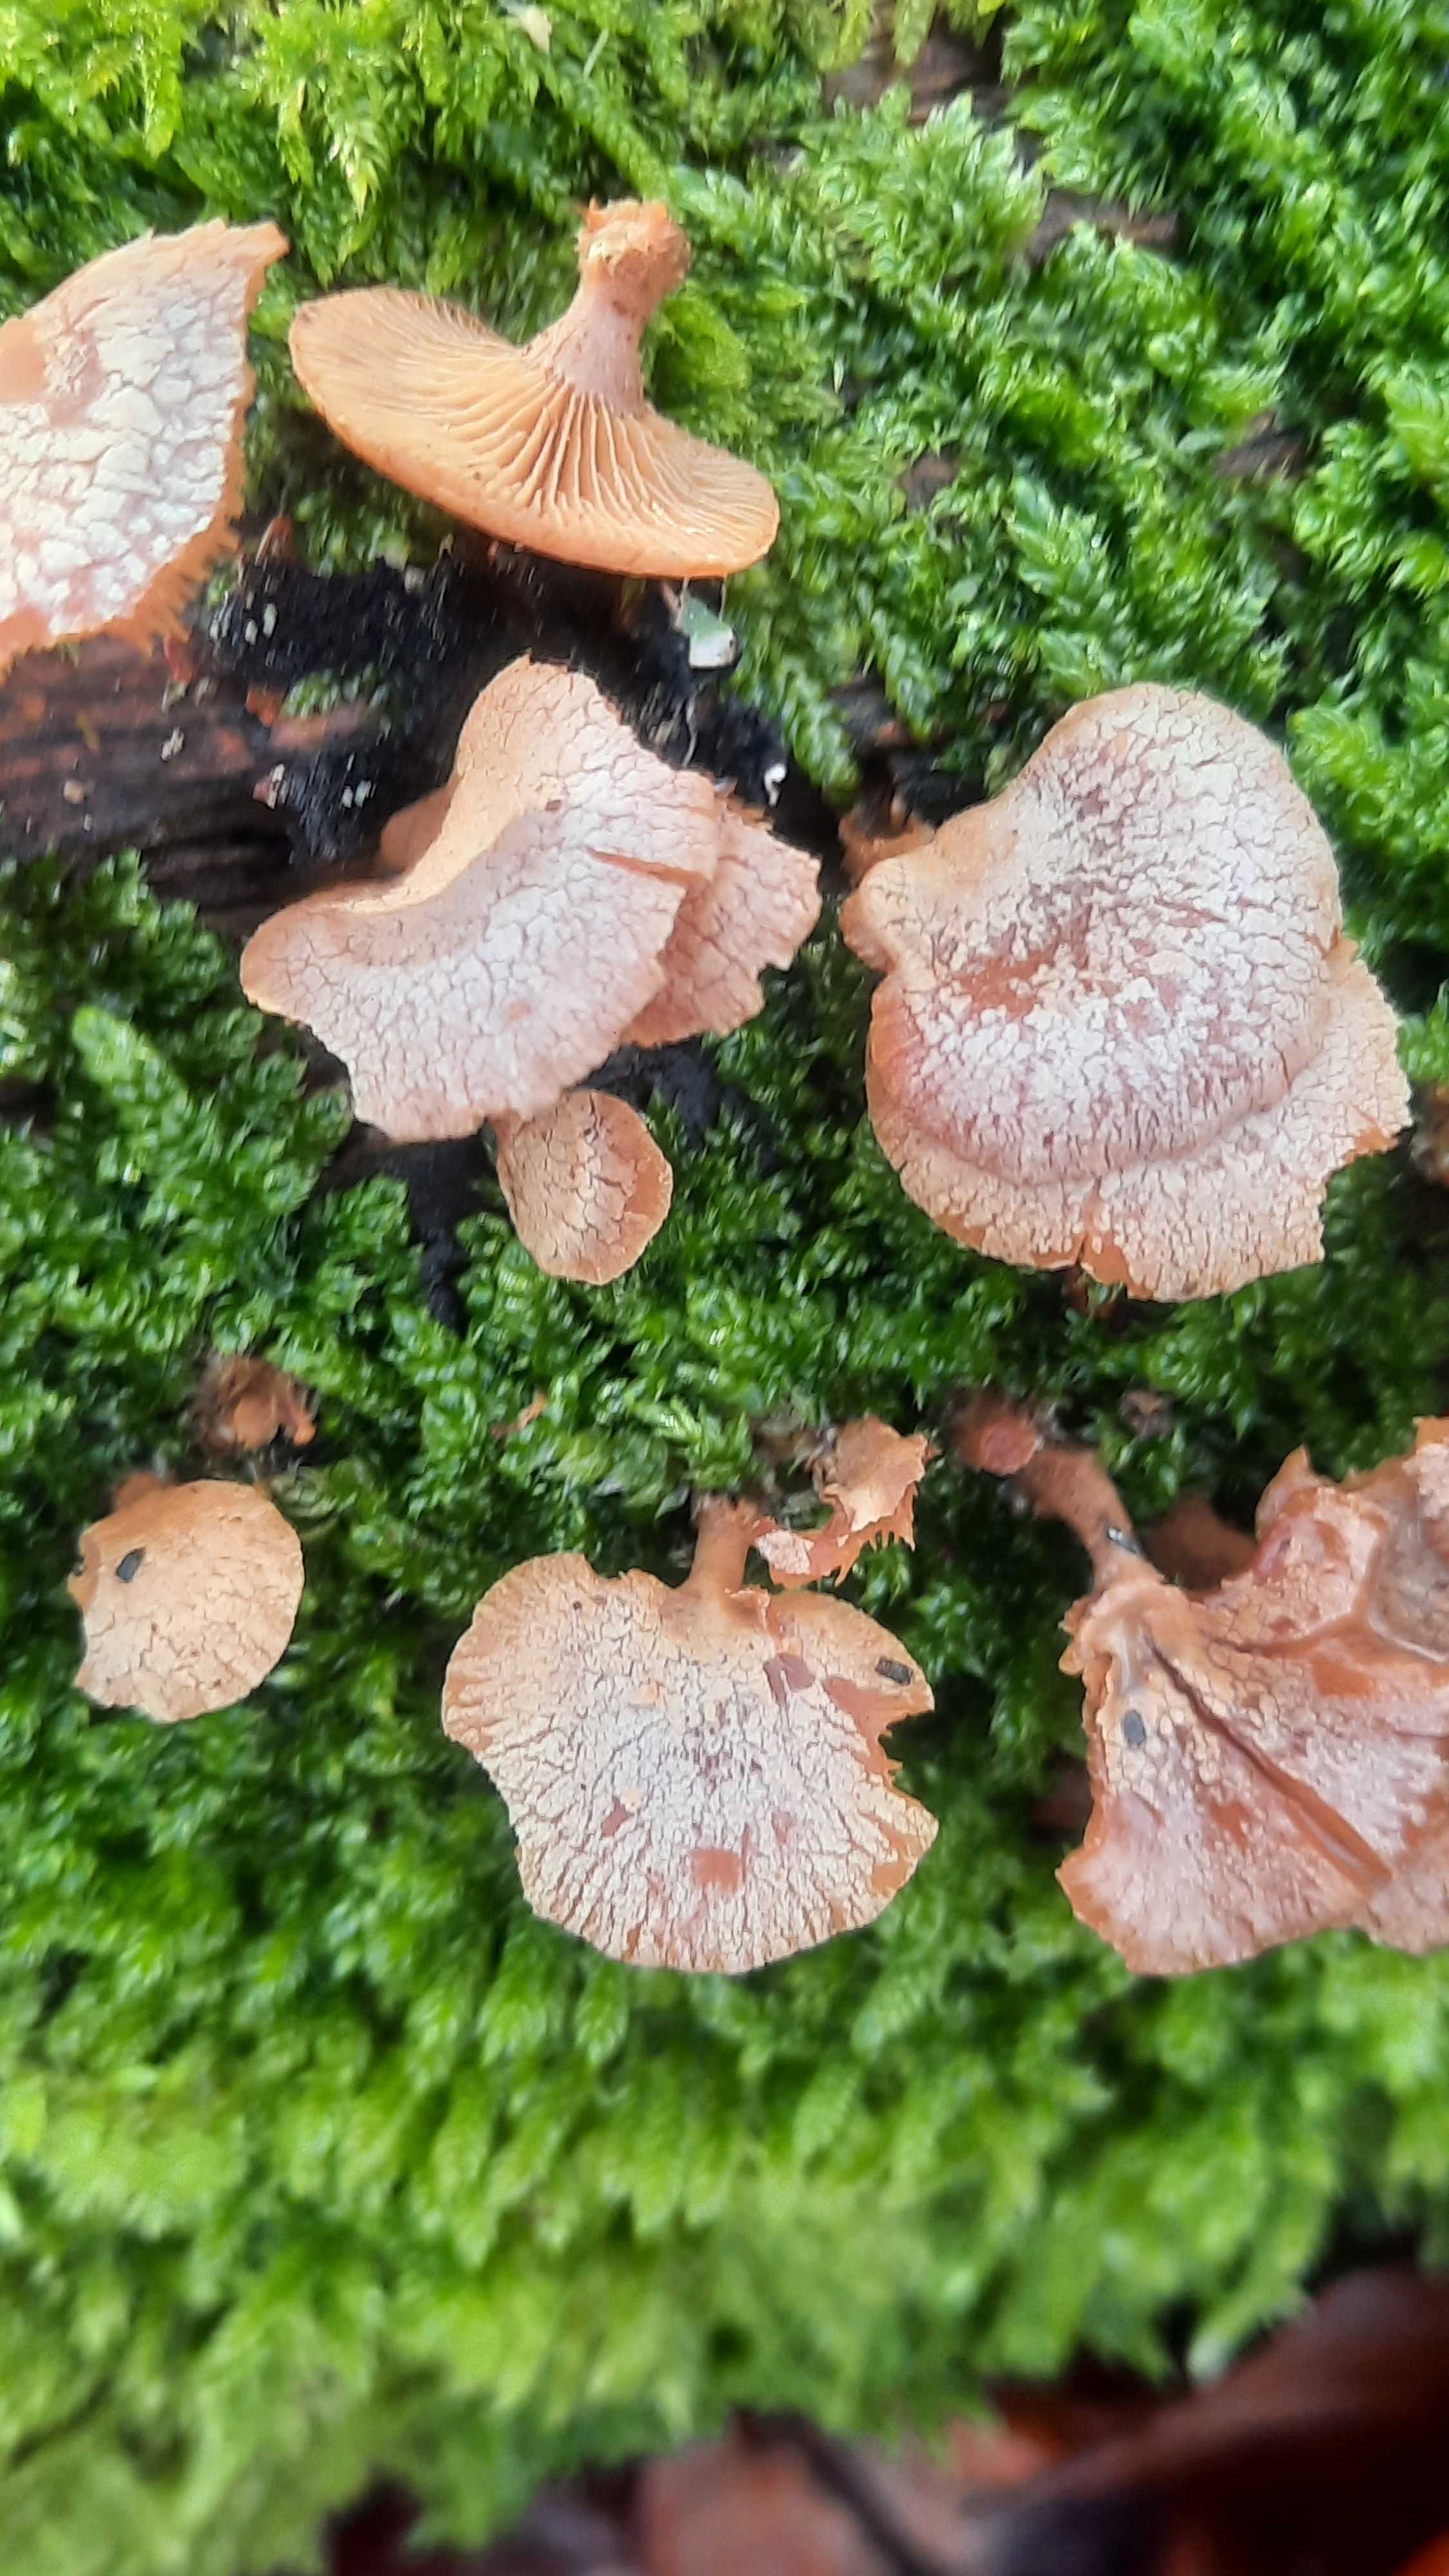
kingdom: Fungi
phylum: Basidiomycota
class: Agaricomycetes
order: Agaricales
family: Mycenaceae
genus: Panellus
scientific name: Panellus stipticus
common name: kliddet epaulethat
